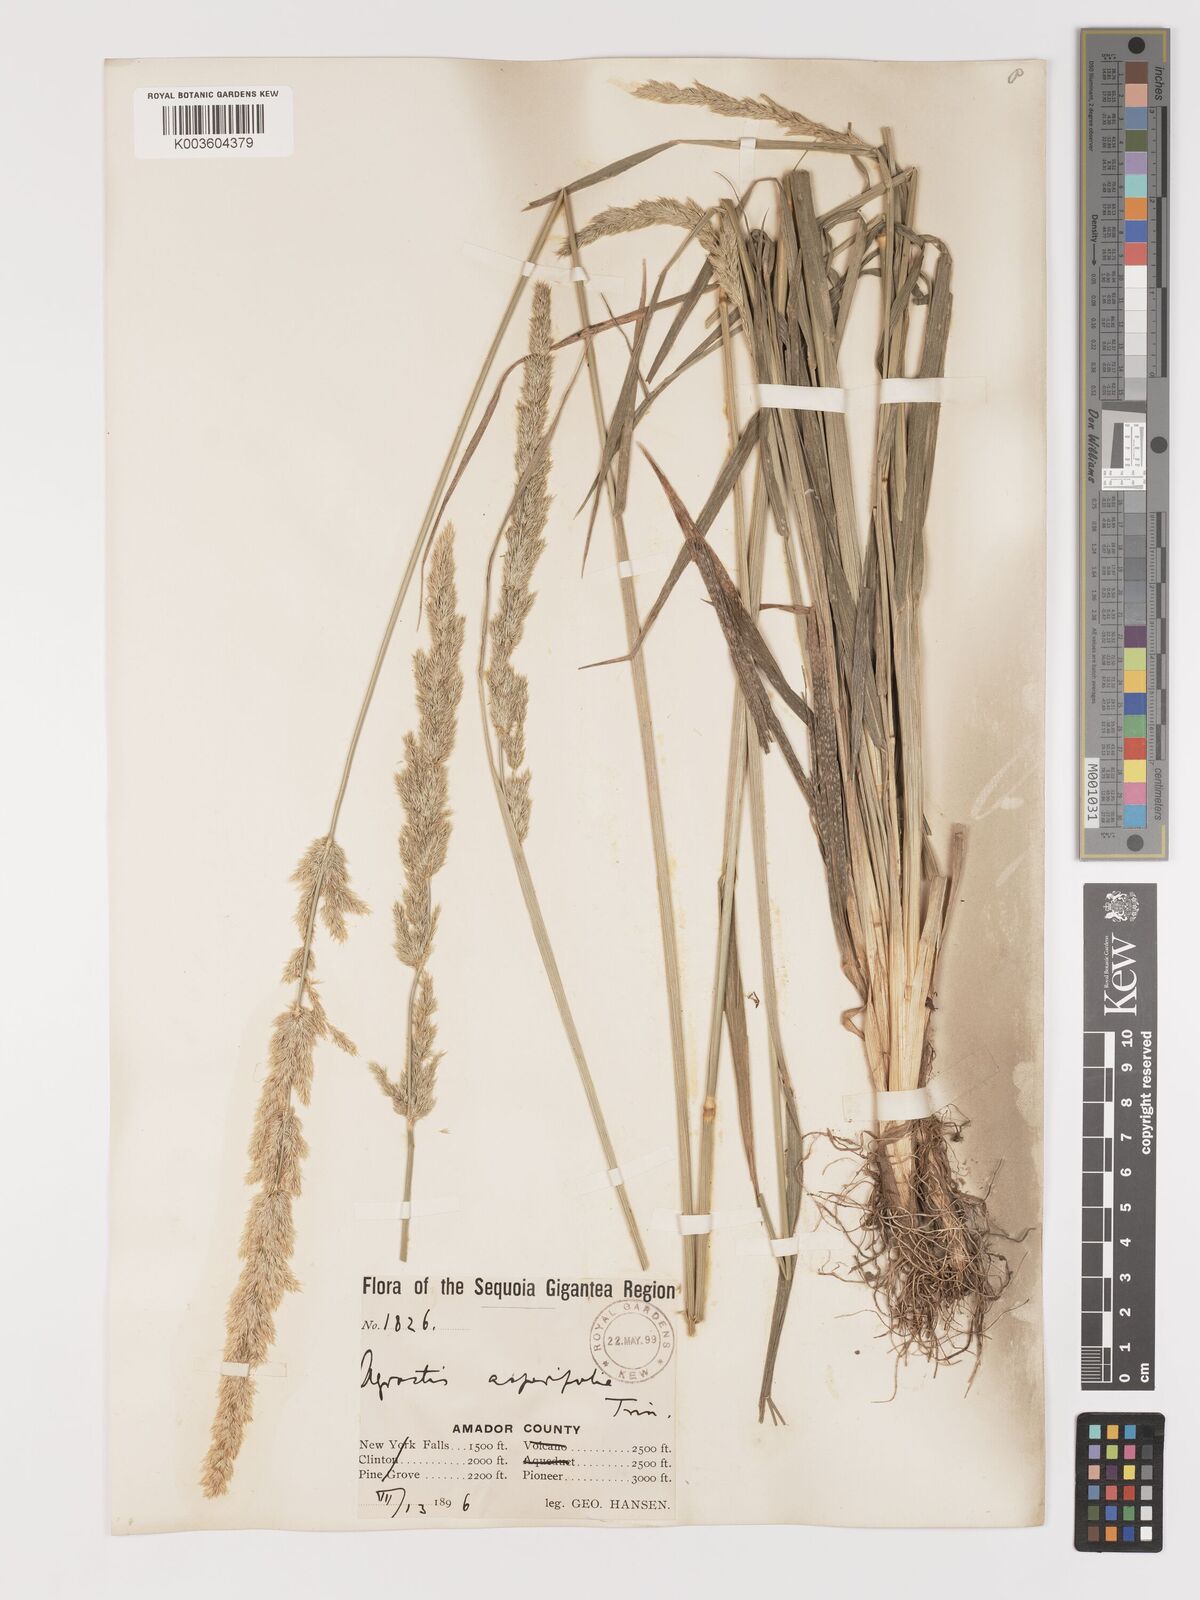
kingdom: Plantae
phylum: Tracheophyta
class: Liliopsida
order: Poales
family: Poaceae
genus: Agrostis
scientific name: Agrostis exarata
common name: Spike bent
